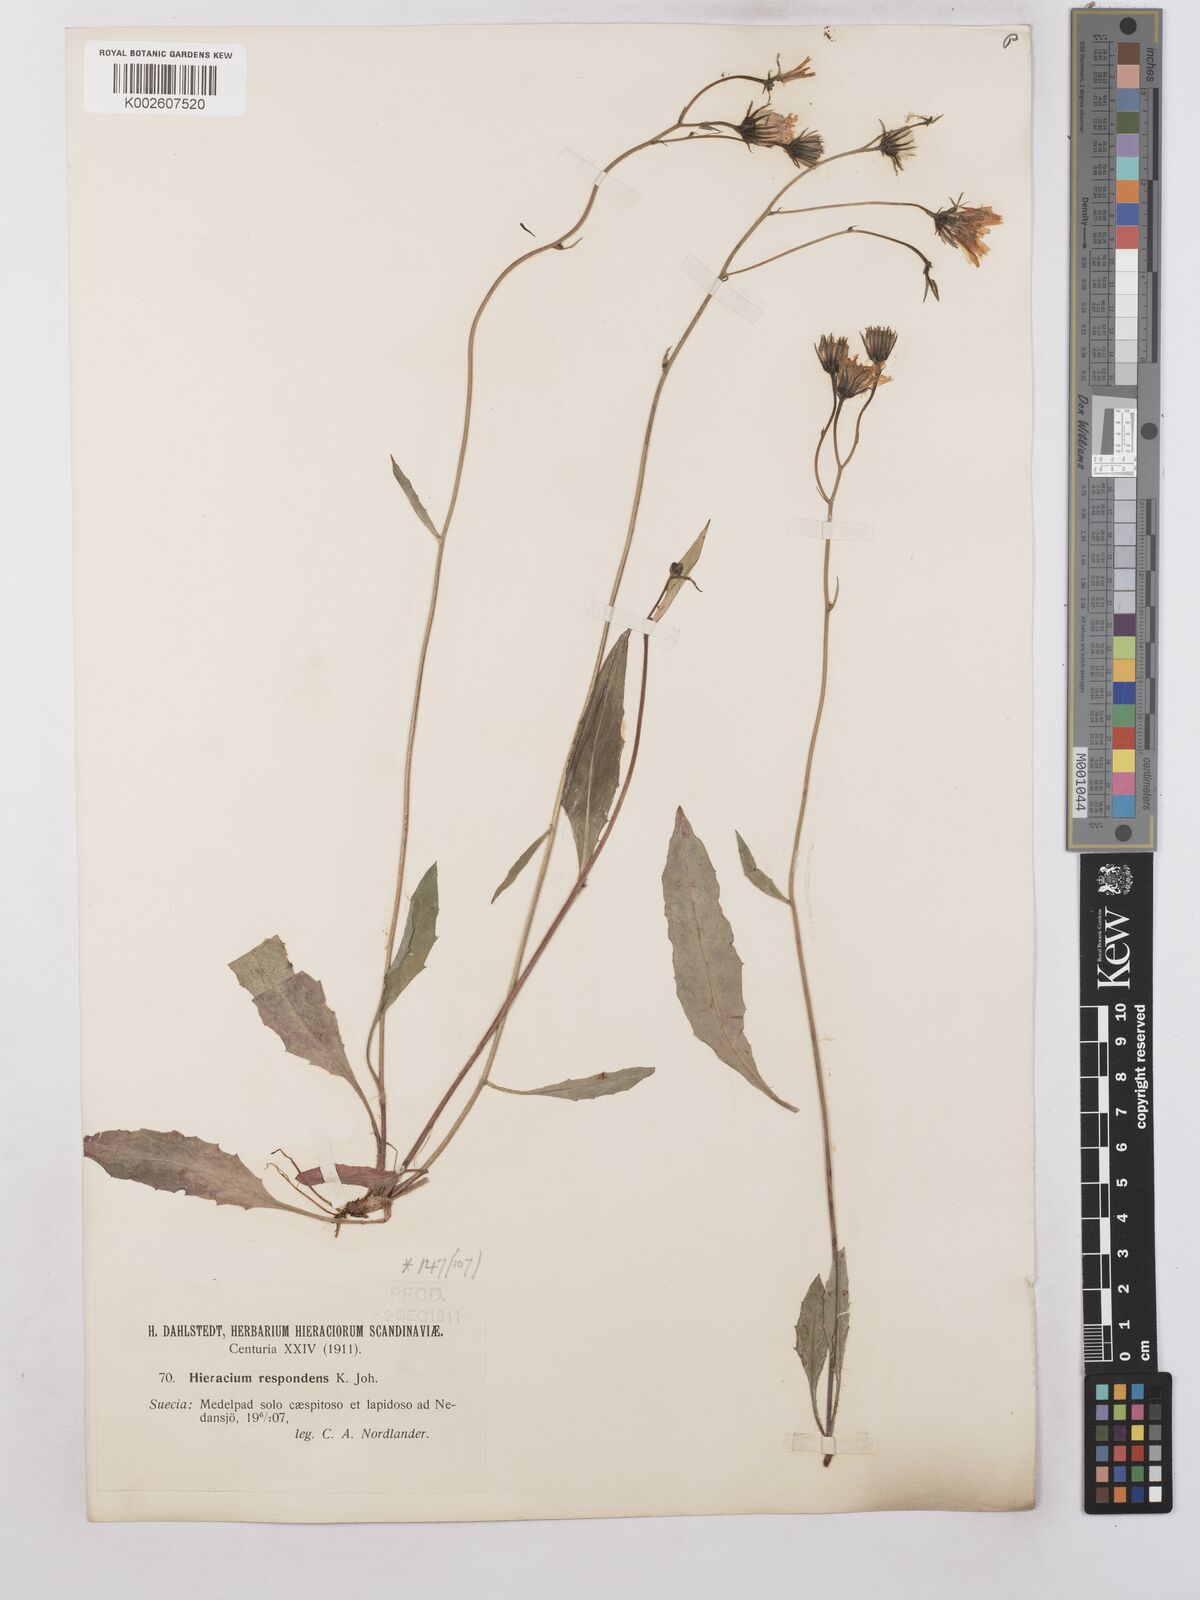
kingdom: Plantae
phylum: Tracheophyta
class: Magnoliopsida
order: Asterales
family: Asteraceae
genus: Hieracium
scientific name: Hieracium caesium
